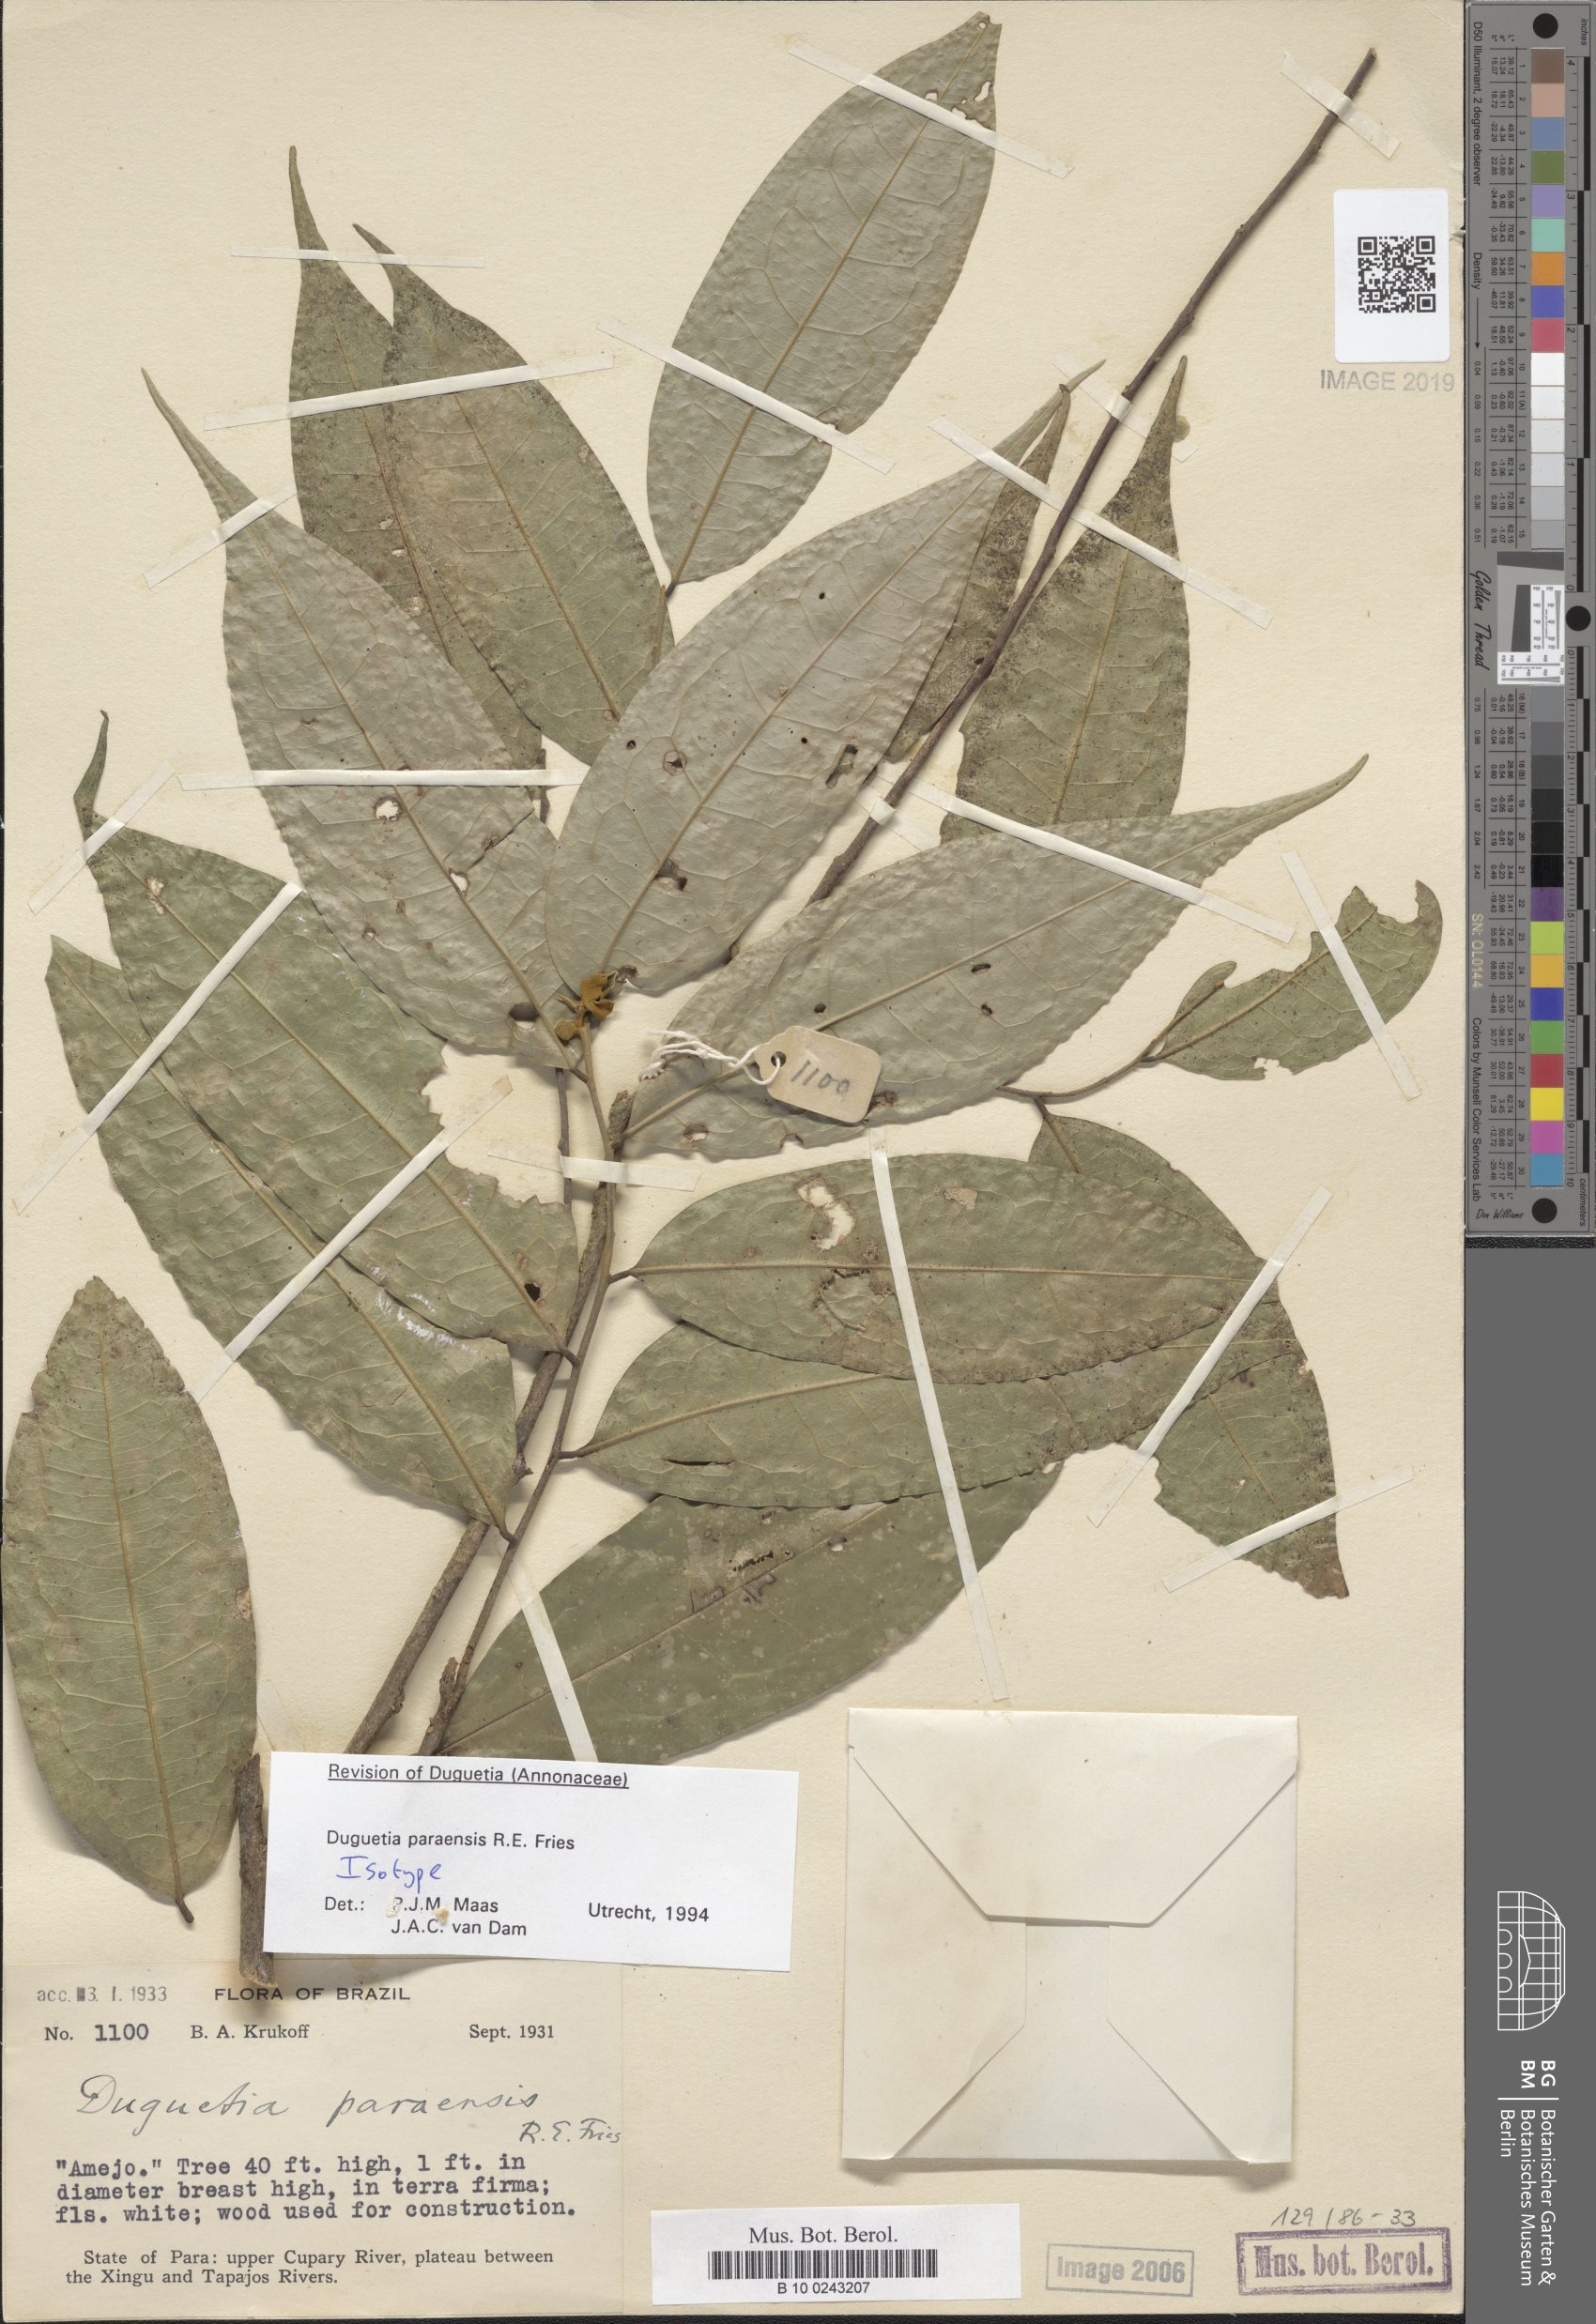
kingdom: Plantae
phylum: Tracheophyta
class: Magnoliopsida
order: Magnoliales
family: Annonaceae
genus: Duguetia
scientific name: Duguetia paraensis
